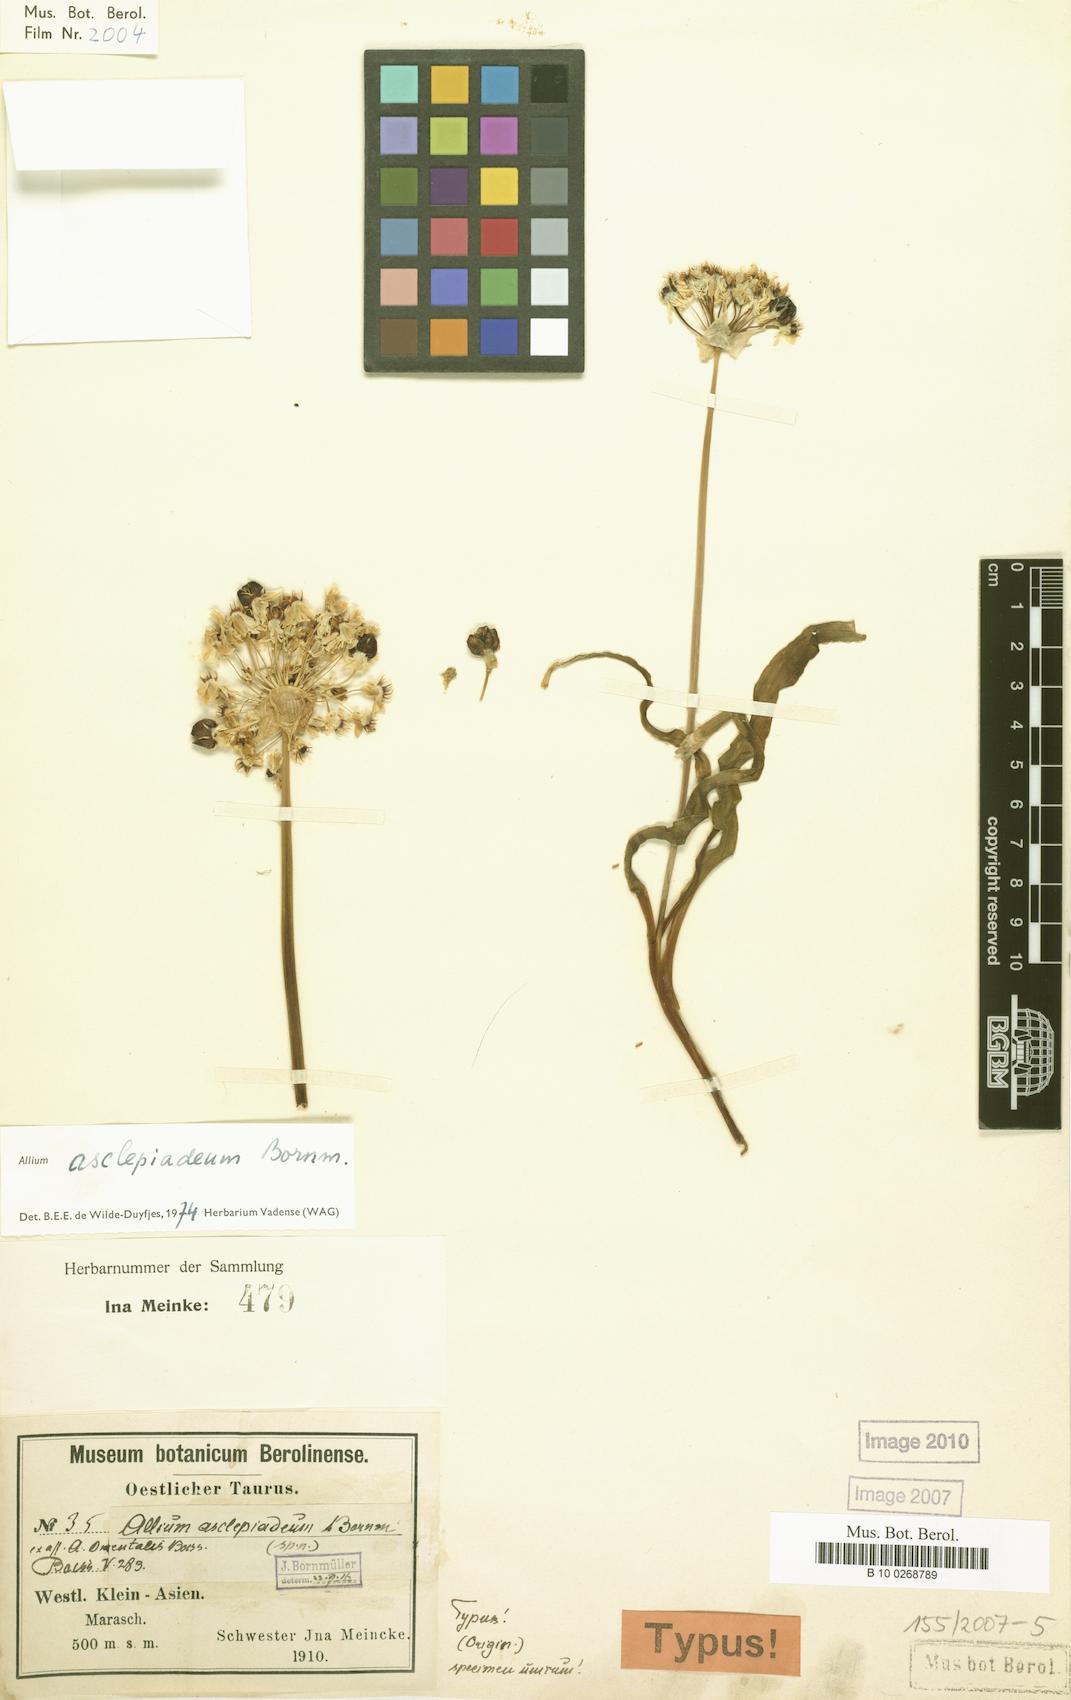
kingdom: Plantae
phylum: Tracheophyta
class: Liliopsida
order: Asparagales
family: Amaryllidaceae
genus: Allium
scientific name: Allium asclepiadeum
